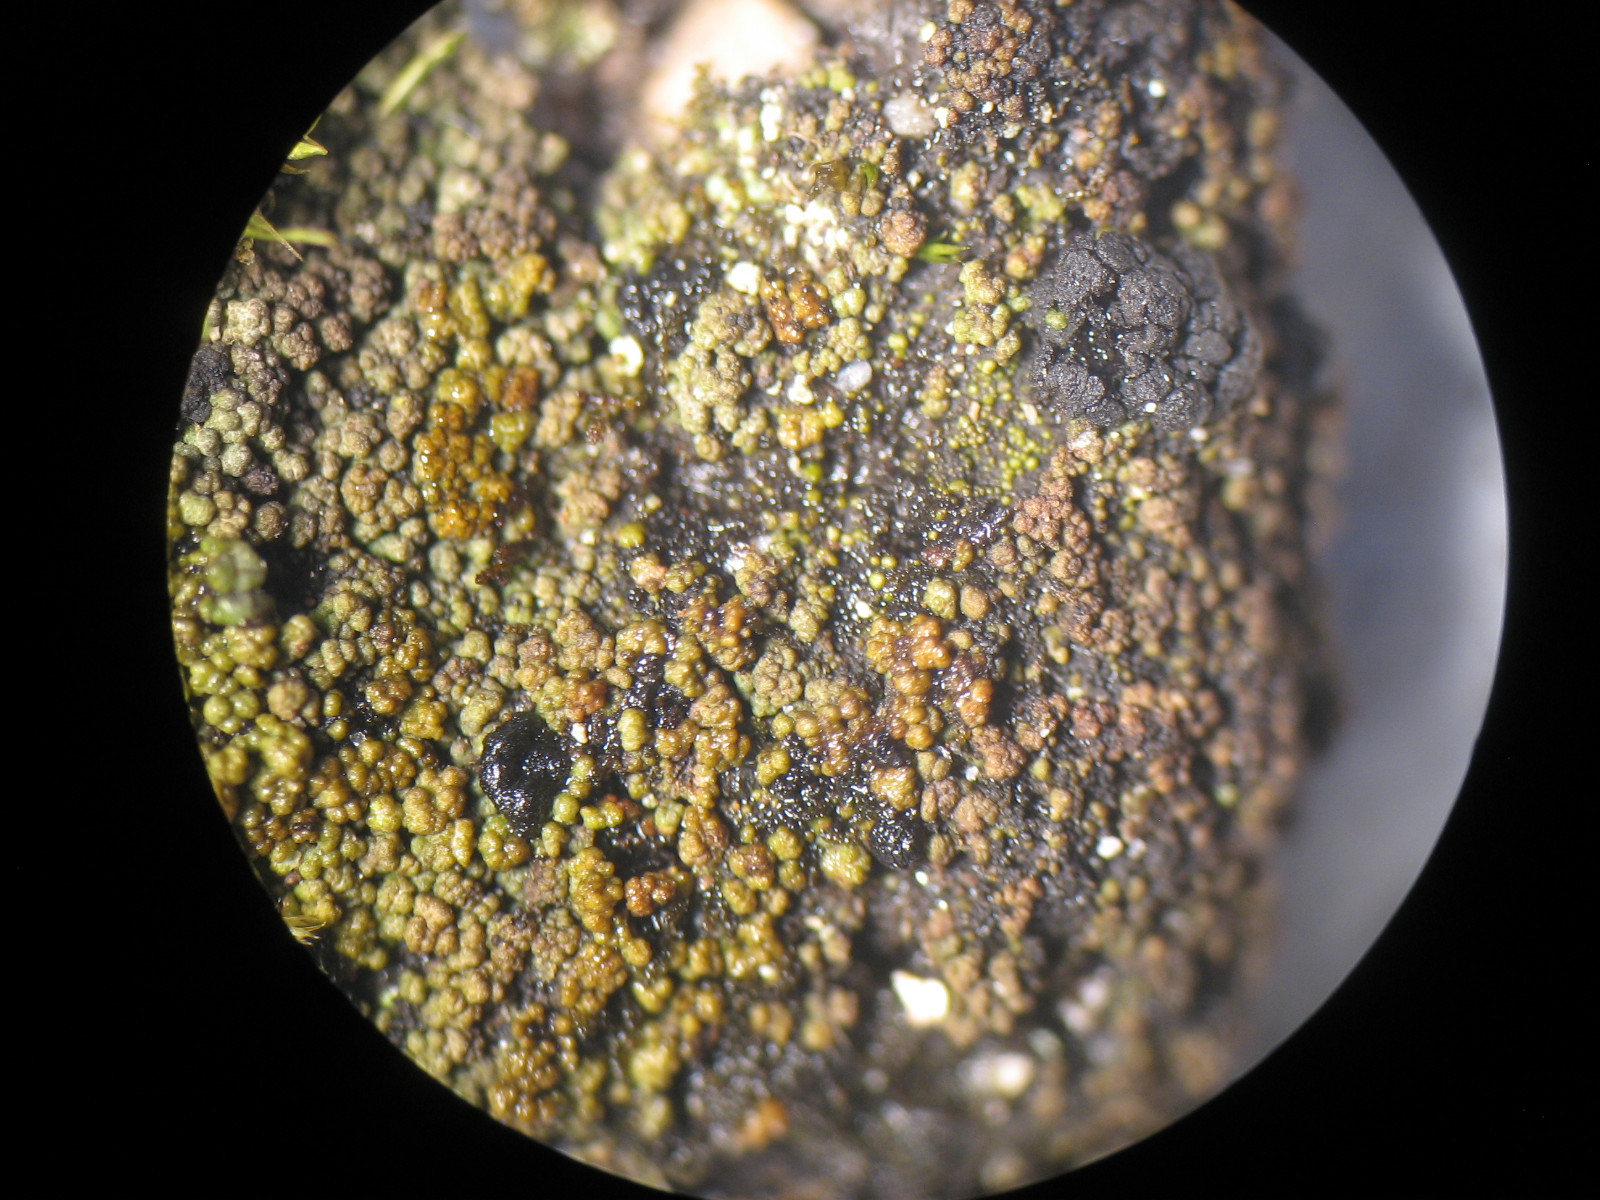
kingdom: Fungi
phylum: Ascomycota
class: Lecanoromycetes
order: Baeomycetales
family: Trapeliaceae
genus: Placynthiella
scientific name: Placynthiella oligotropha
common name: vorte-skivelav
